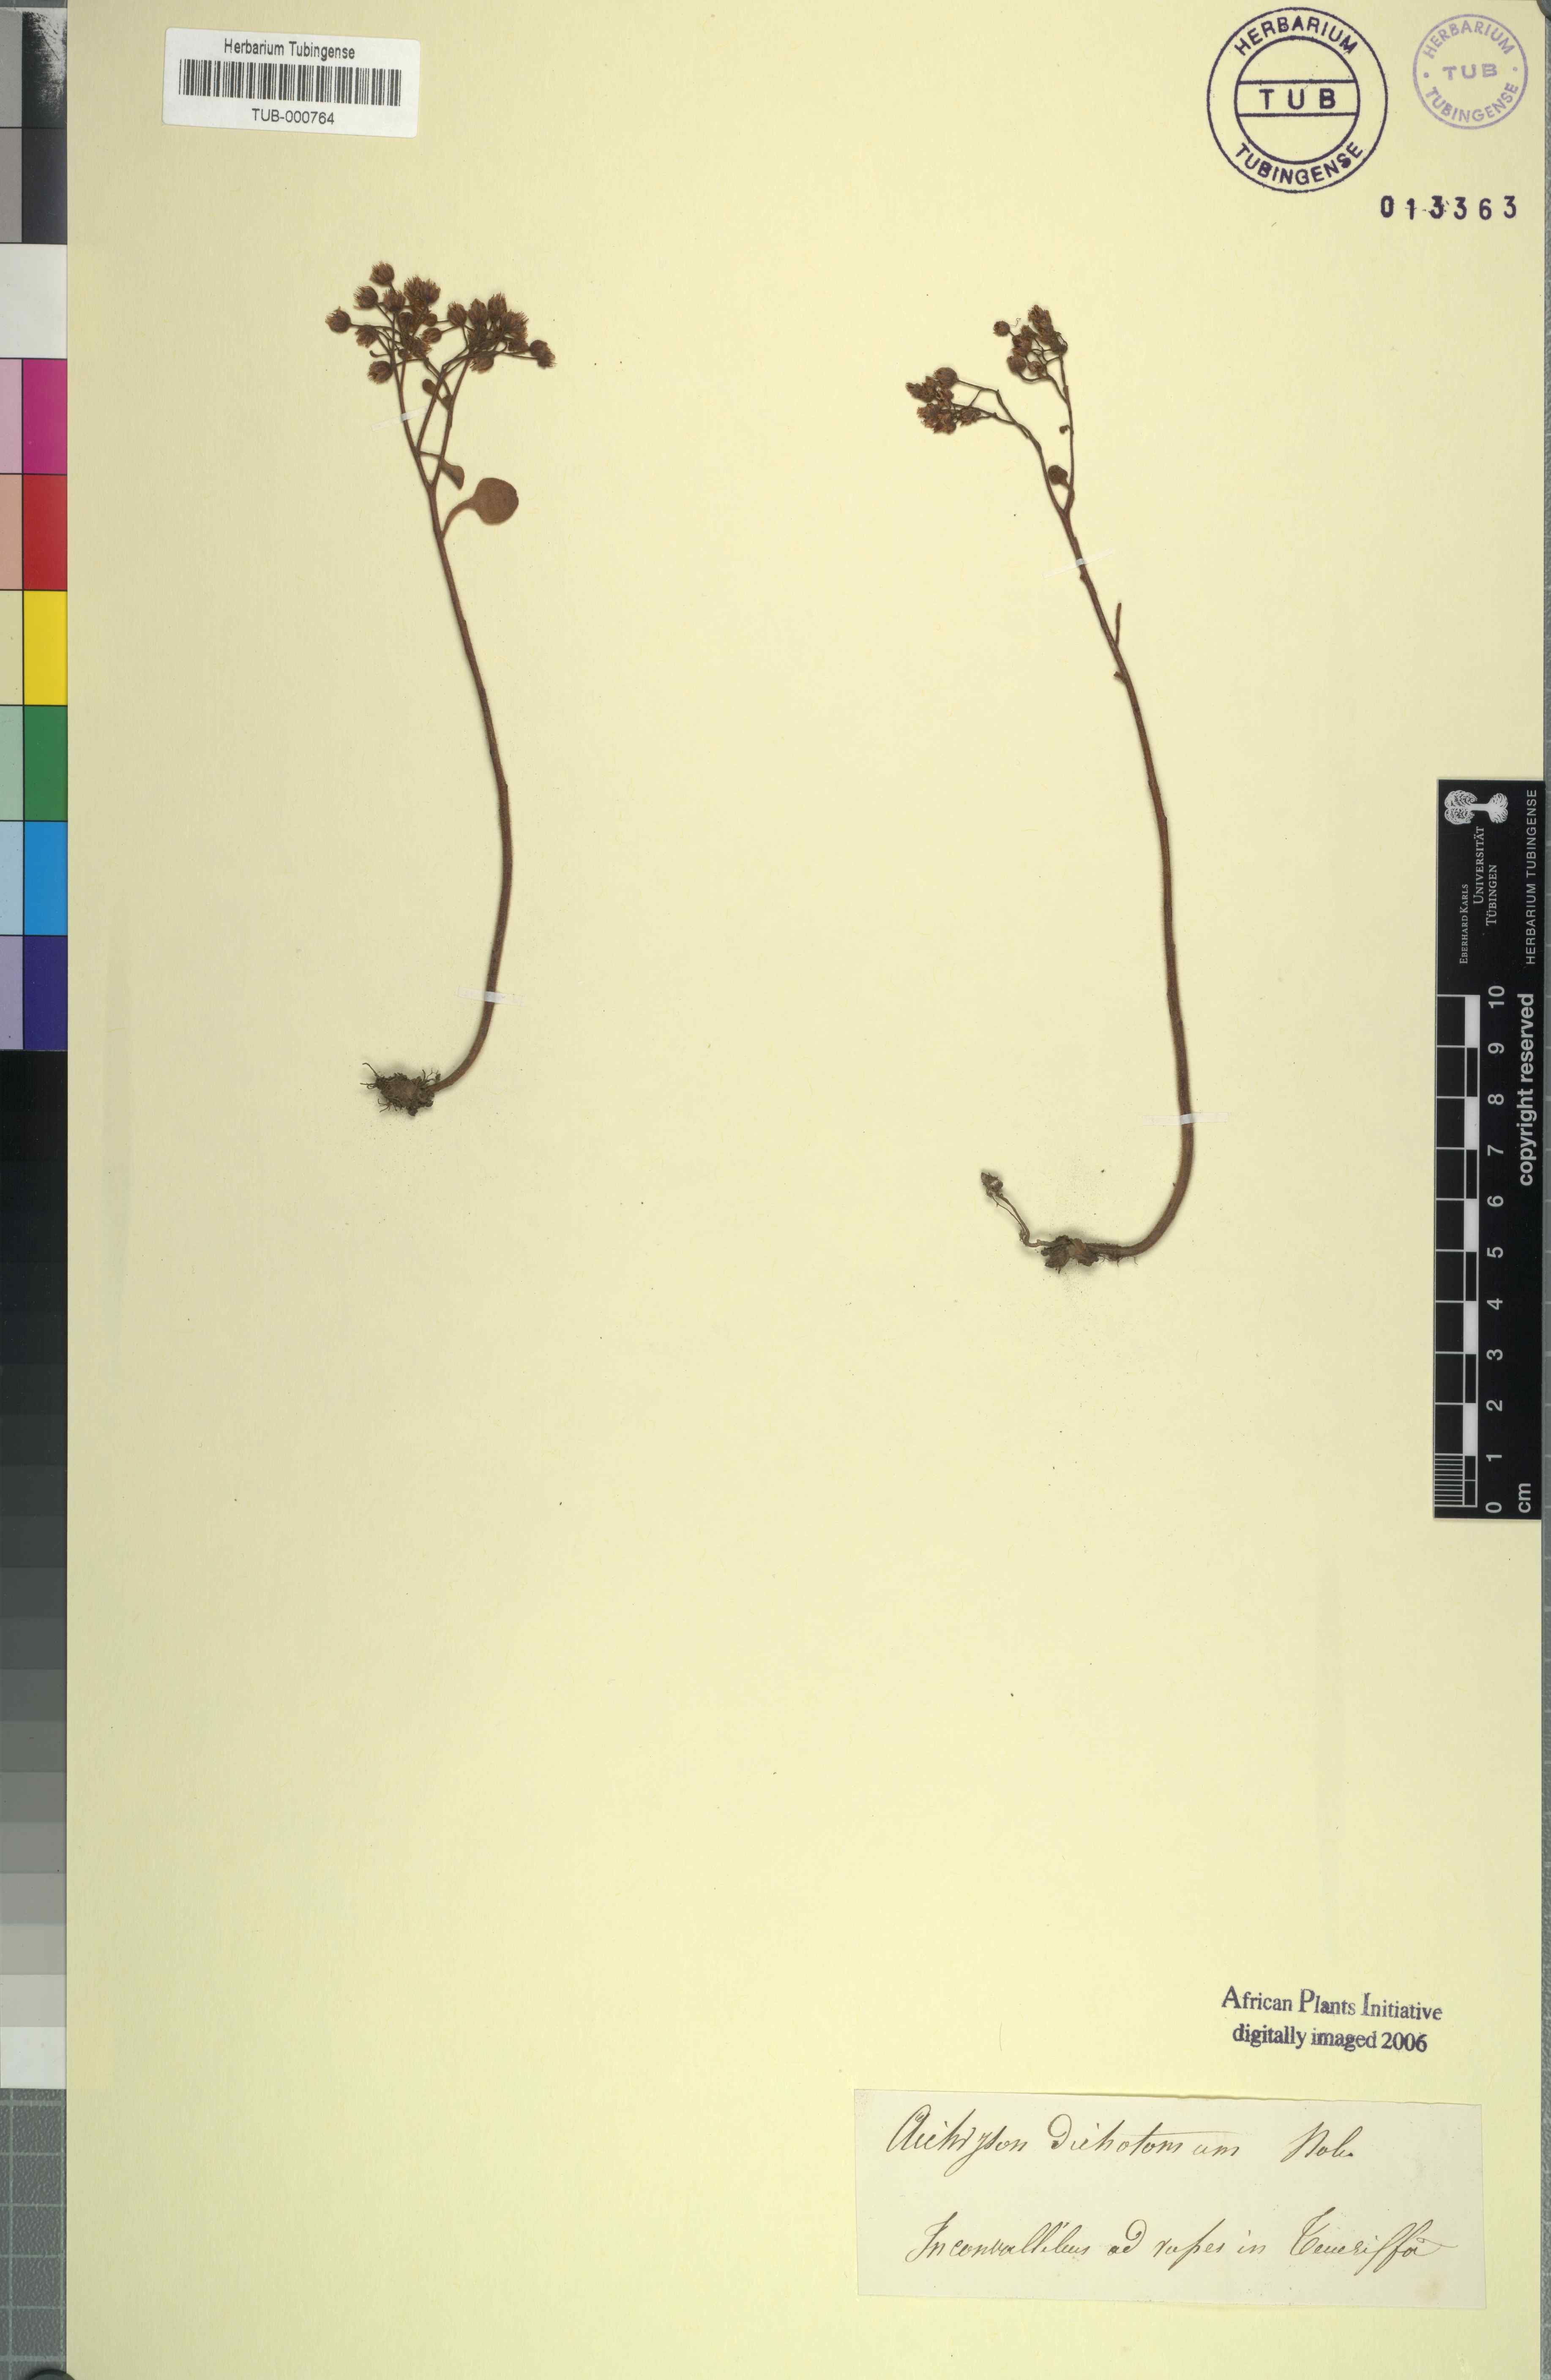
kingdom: Plantae
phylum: Tracheophyta
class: Magnoliopsida
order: Saxifragales
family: Crassulaceae
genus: Aichryson
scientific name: Aichryson laxum
